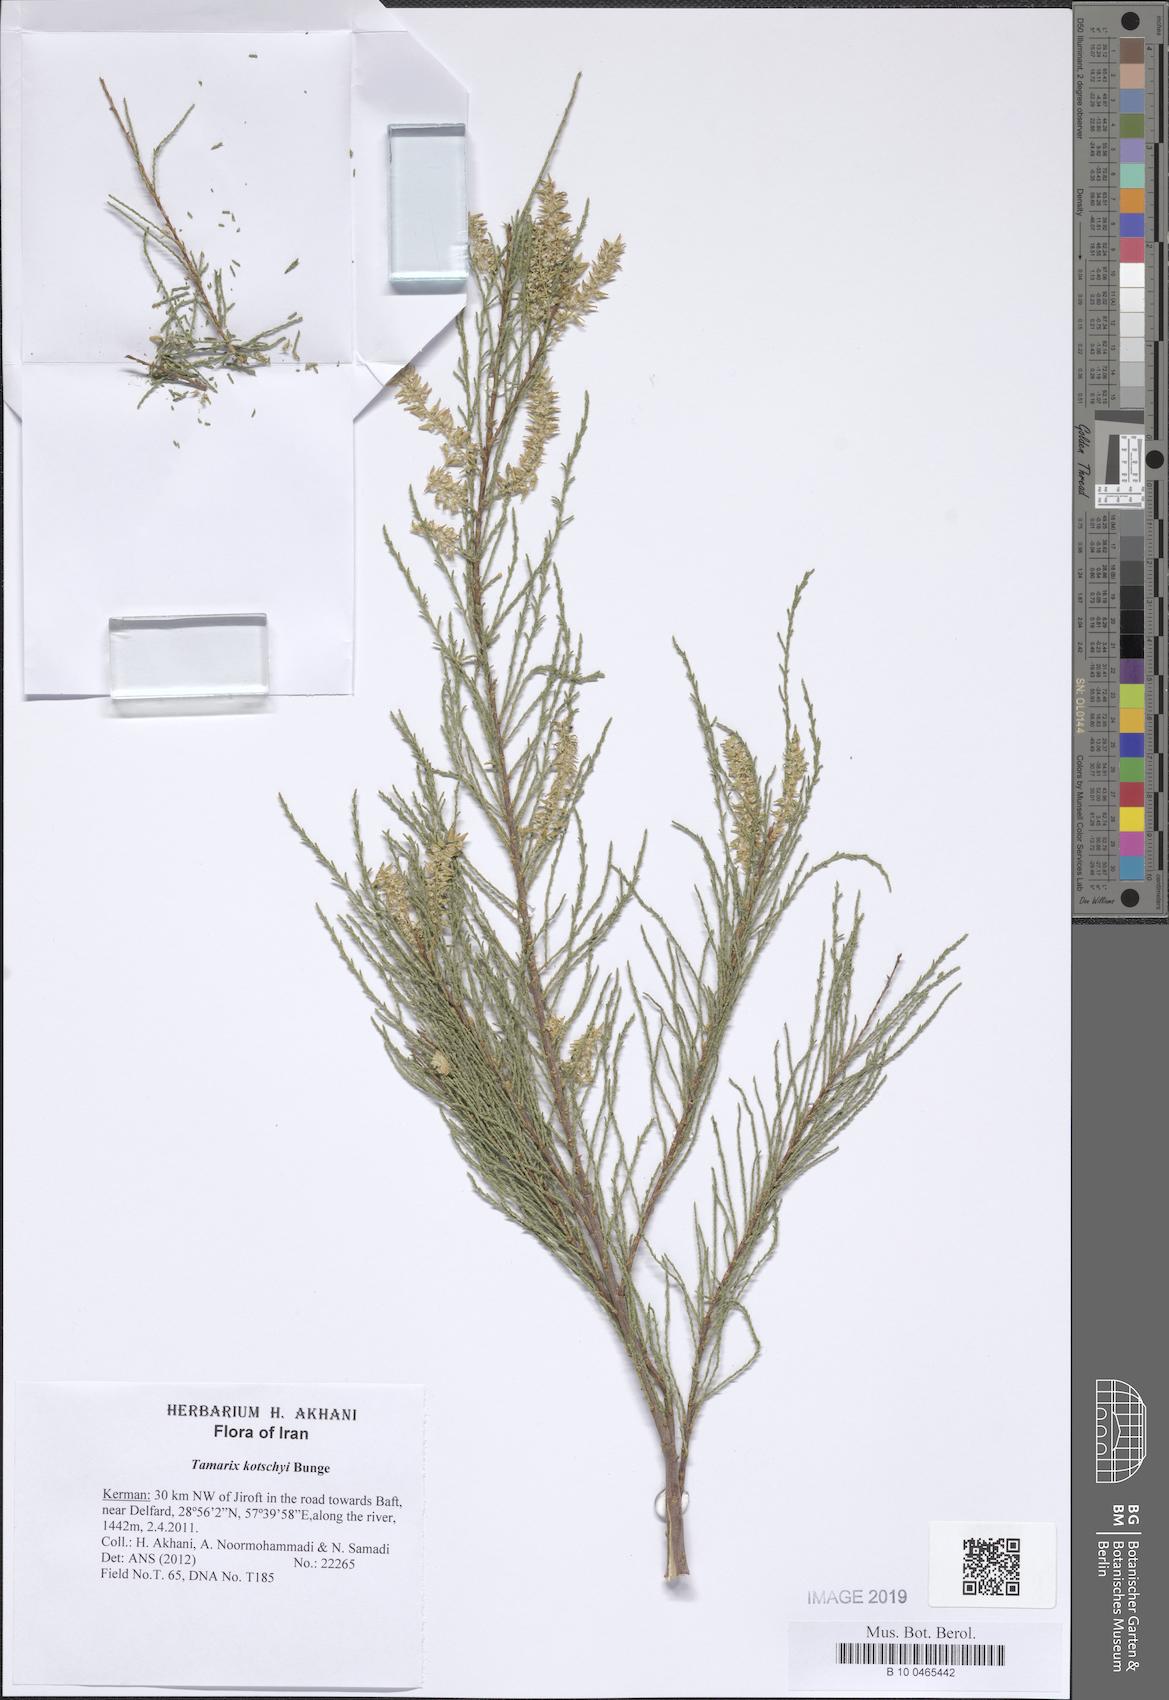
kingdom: Plantae
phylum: Tracheophyta
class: Magnoliopsida
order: Caryophyllales
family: Tamaricaceae
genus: Tamarix
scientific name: Tamarix kotschyi
